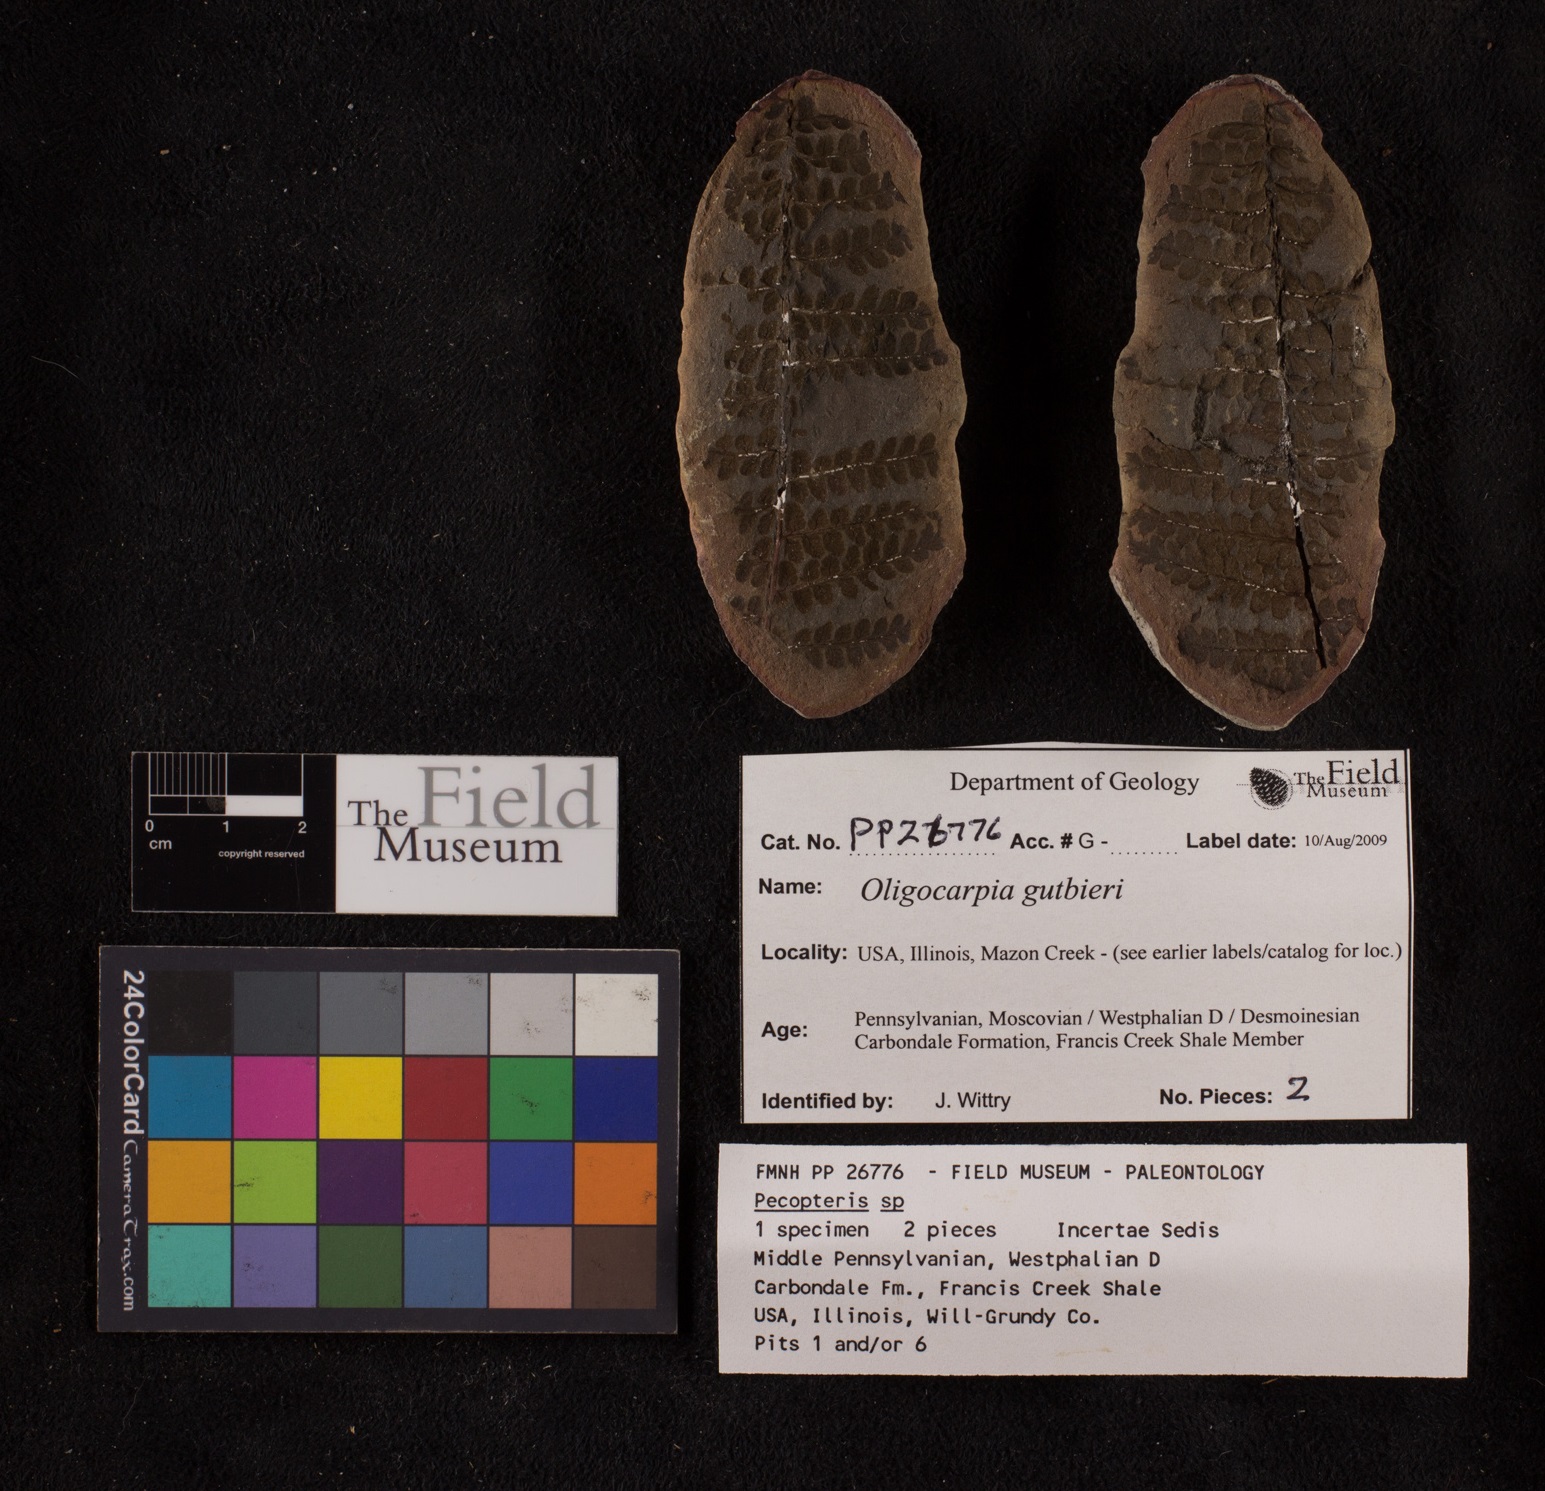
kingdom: Plantae
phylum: Tracheophyta
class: Polypodiopsida
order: Gleicheniales
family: Gleicheniaceae
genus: Oligocarpia
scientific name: Oligocarpia gutbieri
